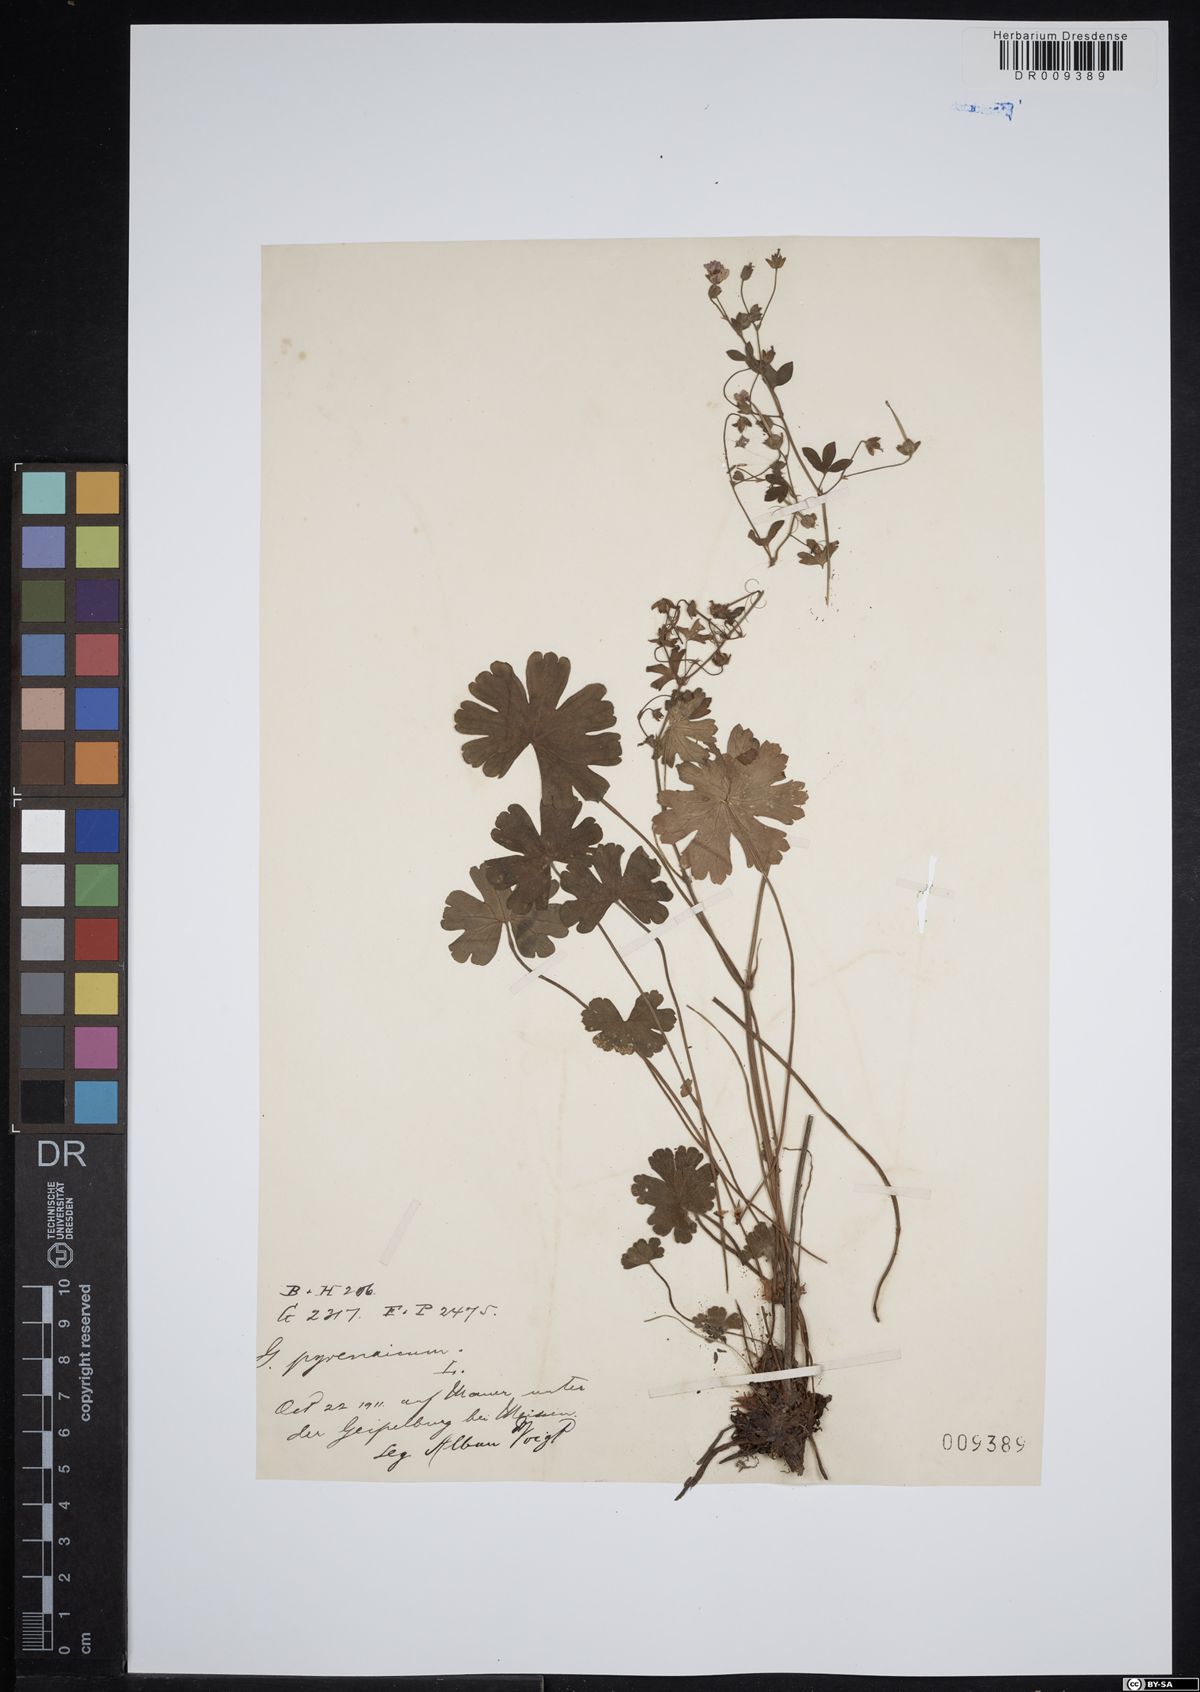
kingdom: Plantae
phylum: Tracheophyta
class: Magnoliopsida
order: Geraniales
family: Geraniaceae
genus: Geranium
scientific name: Geranium pyrenaicum
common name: Hedgerow crane's-bill
